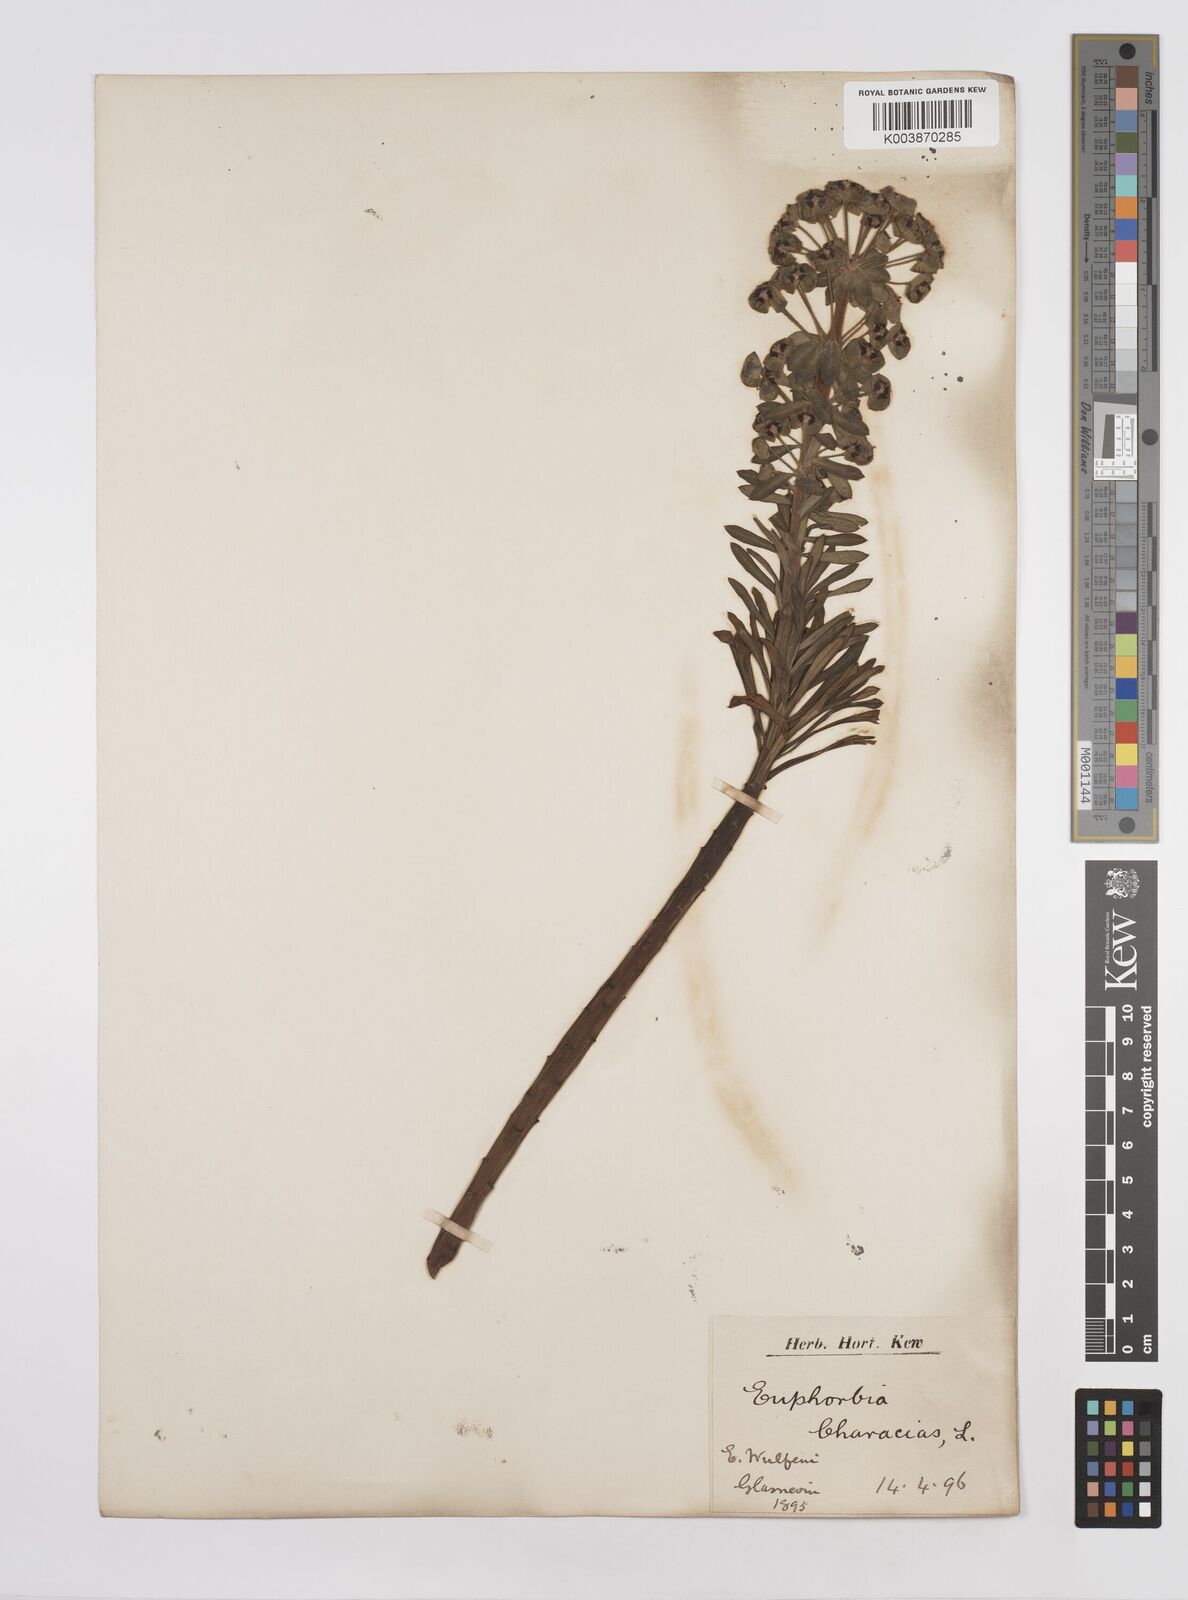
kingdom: Plantae
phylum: Tracheophyta
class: Magnoliopsida
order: Malpighiales
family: Euphorbiaceae
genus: Euphorbia
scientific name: Euphorbia characias
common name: Mediterranean spurge
